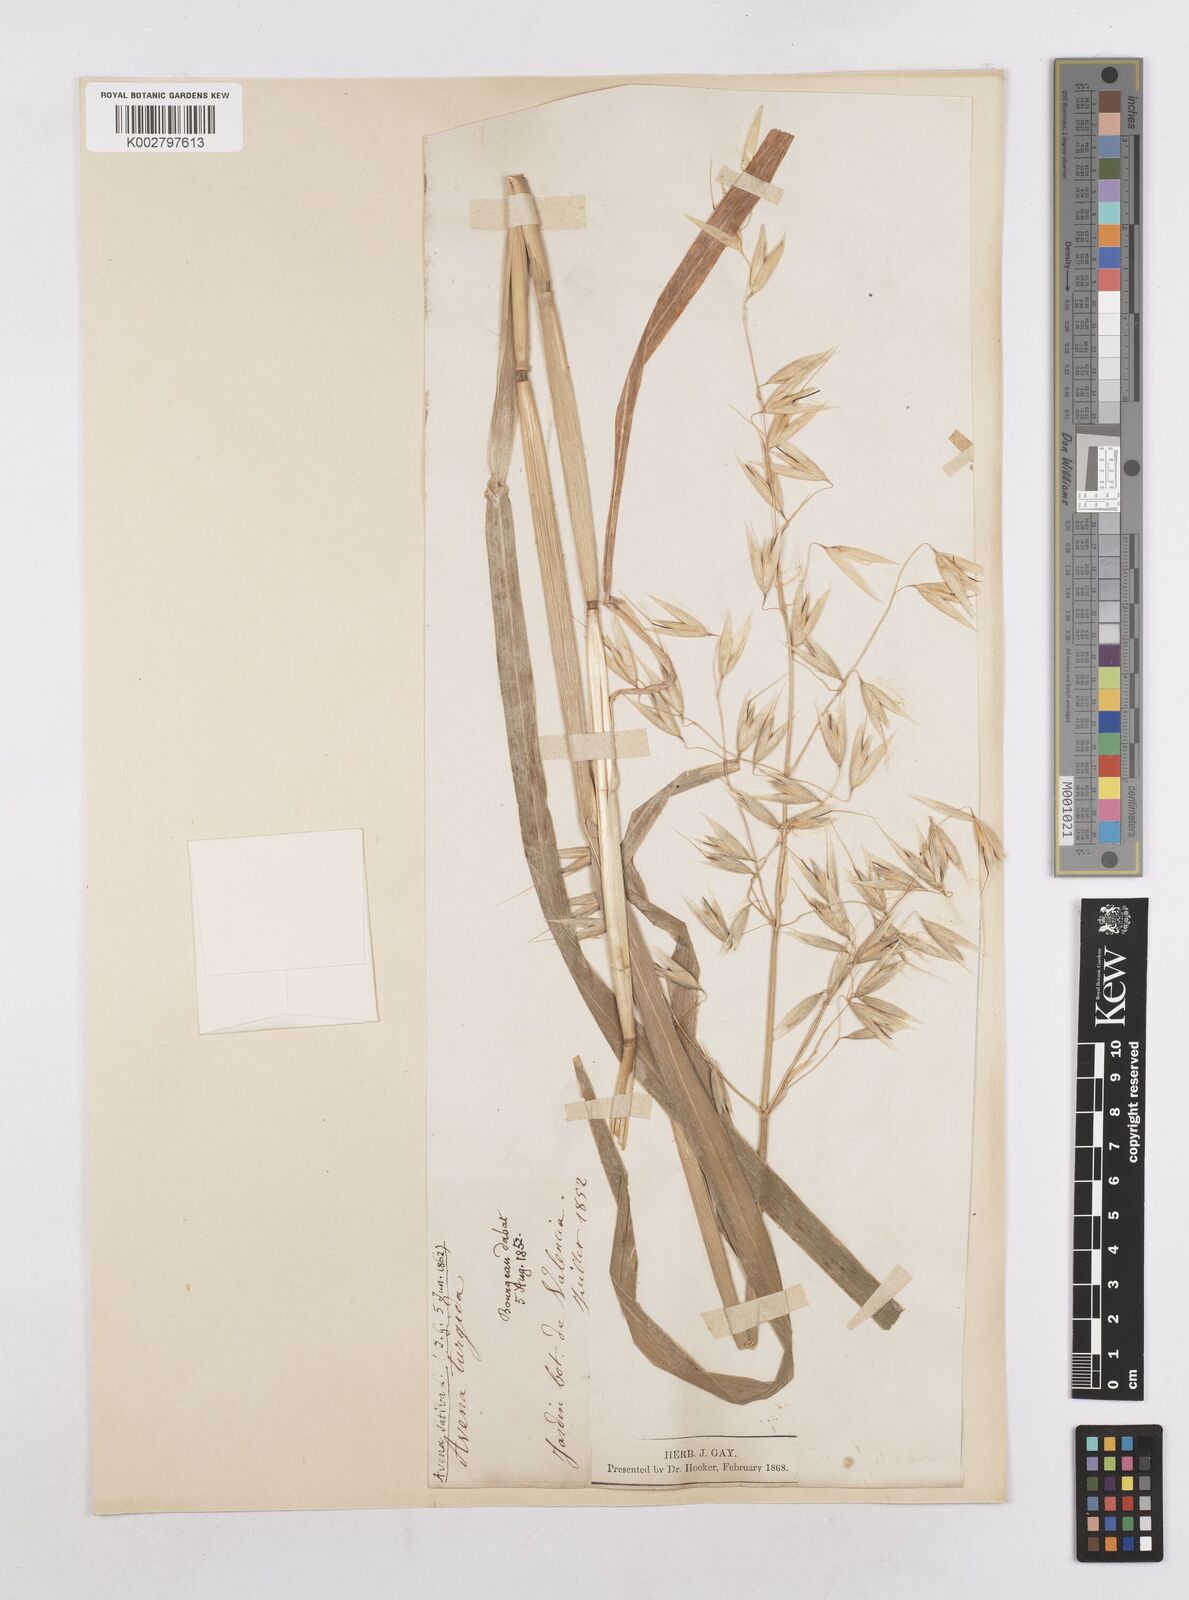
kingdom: Plantae
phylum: Tracheophyta
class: Liliopsida
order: Poales
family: Poaceae
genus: Avena
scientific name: Avena sativa
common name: Oat
